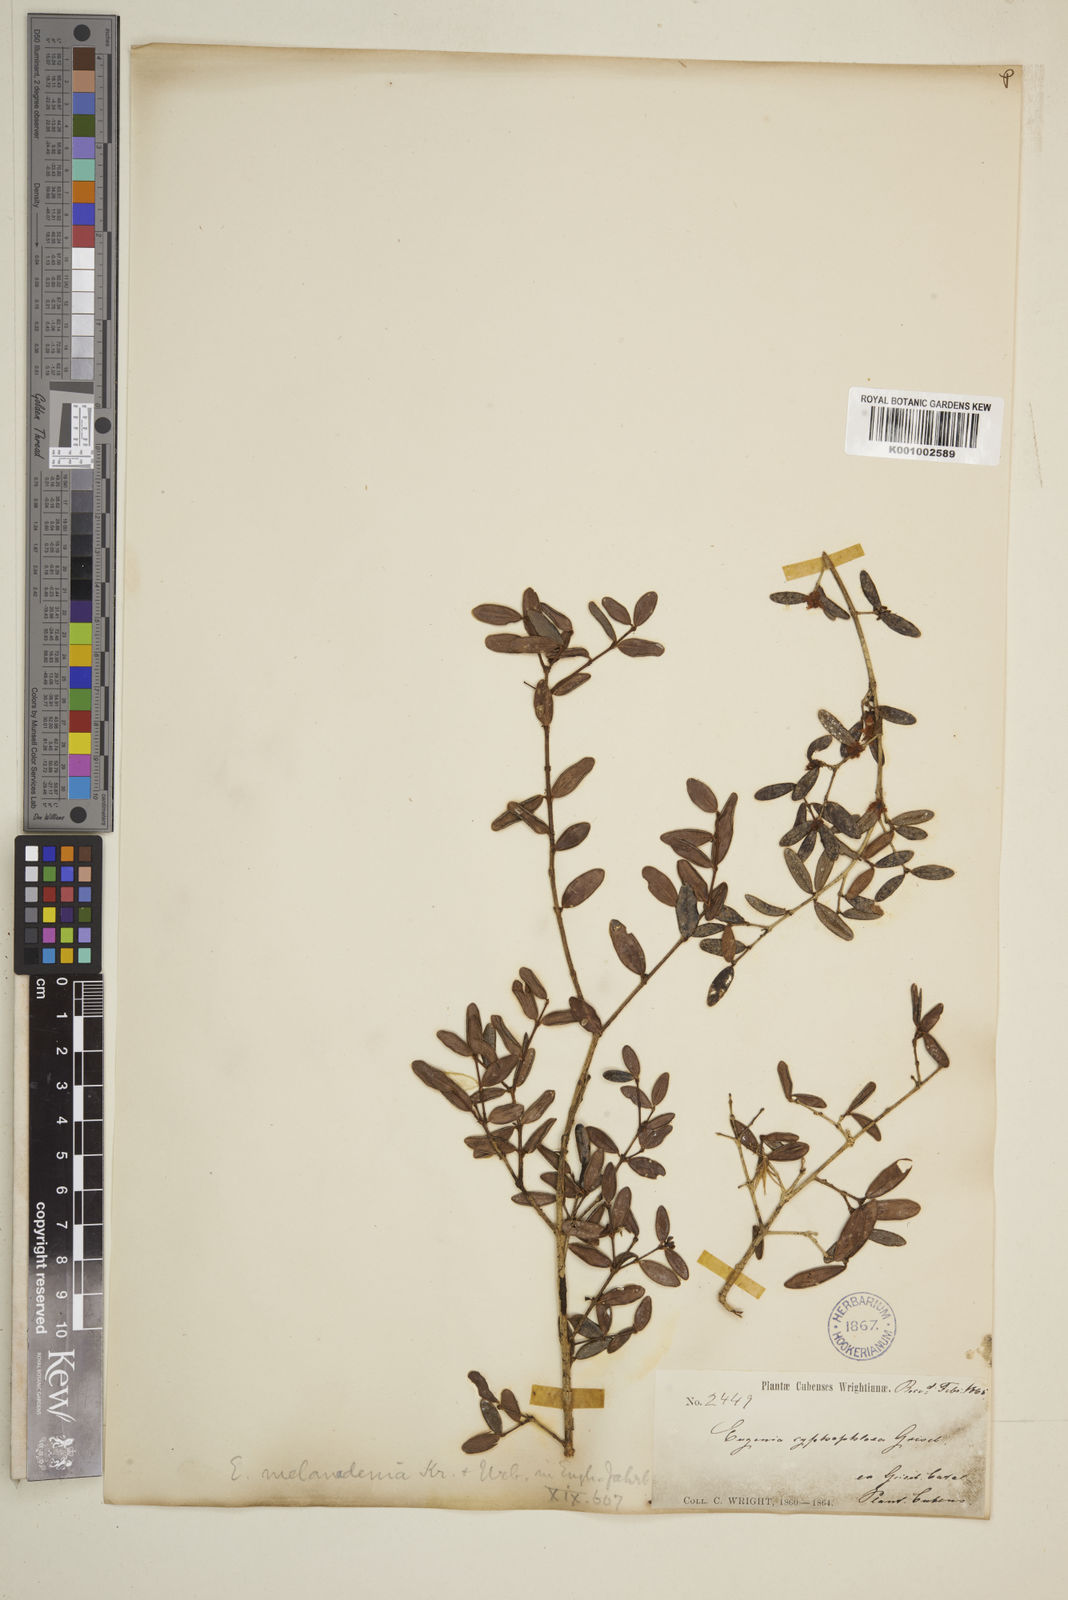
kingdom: Plantae
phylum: Tracheophyta
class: Magnoliopsida
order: Myrtales
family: Myrtaceae
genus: Eugenia
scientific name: Eugenia melanadenia
